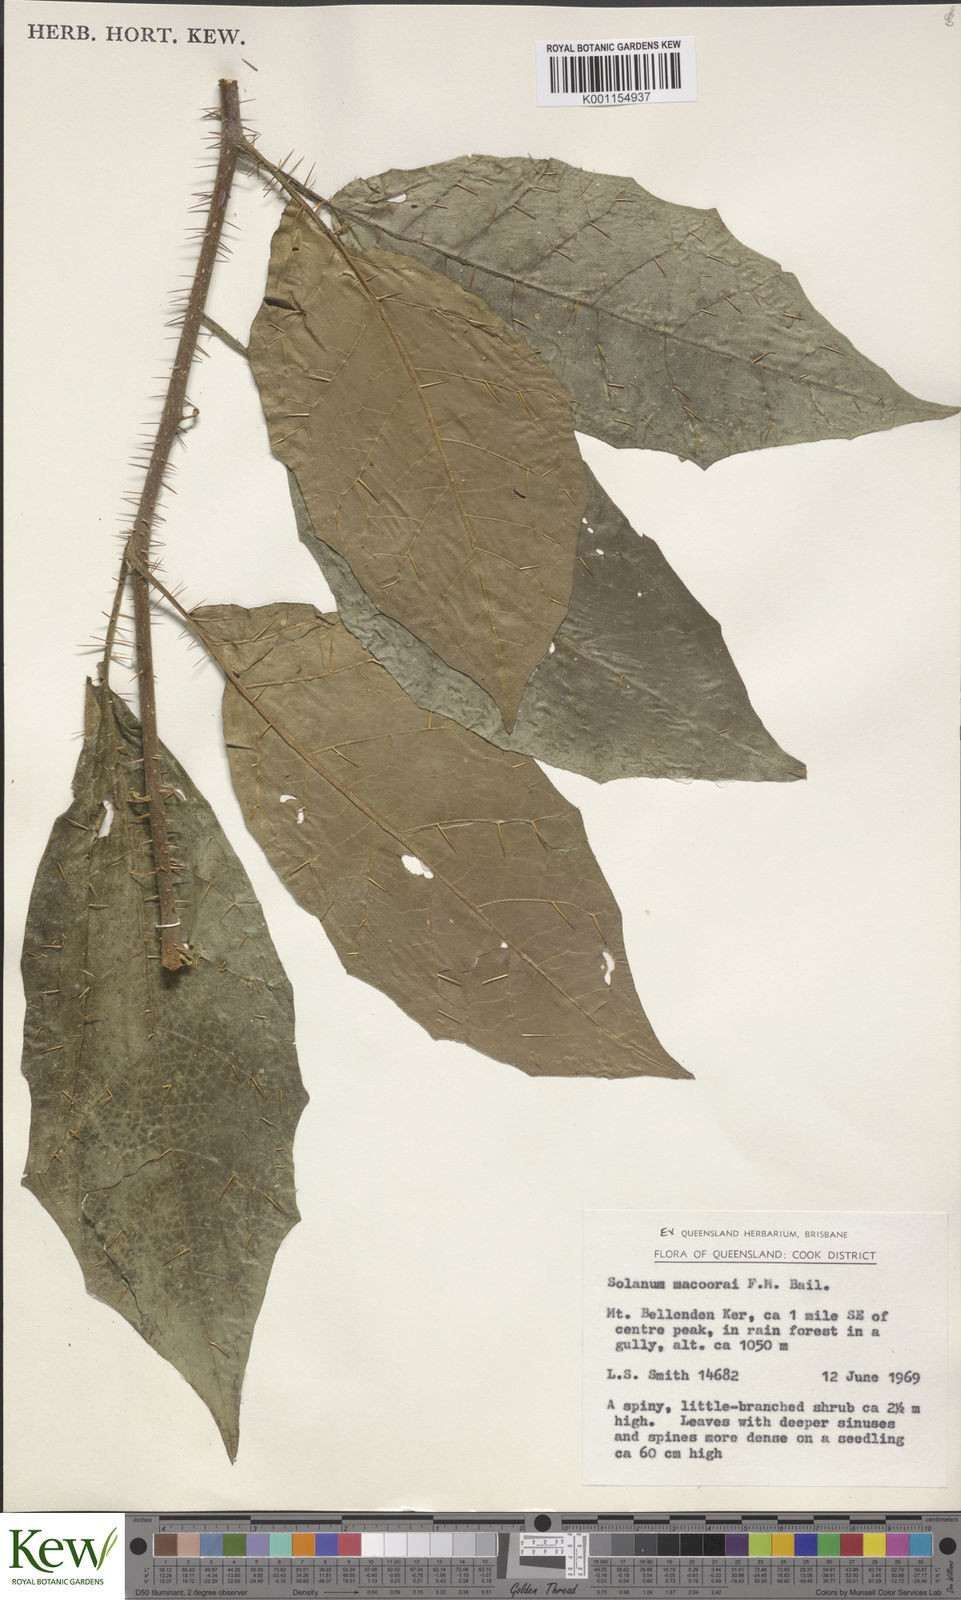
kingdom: Plantae
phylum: Tracheophyta
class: Magnoliopsida
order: Solanales
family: Solanaceae
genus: Solanum
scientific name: Solanum macoorai
